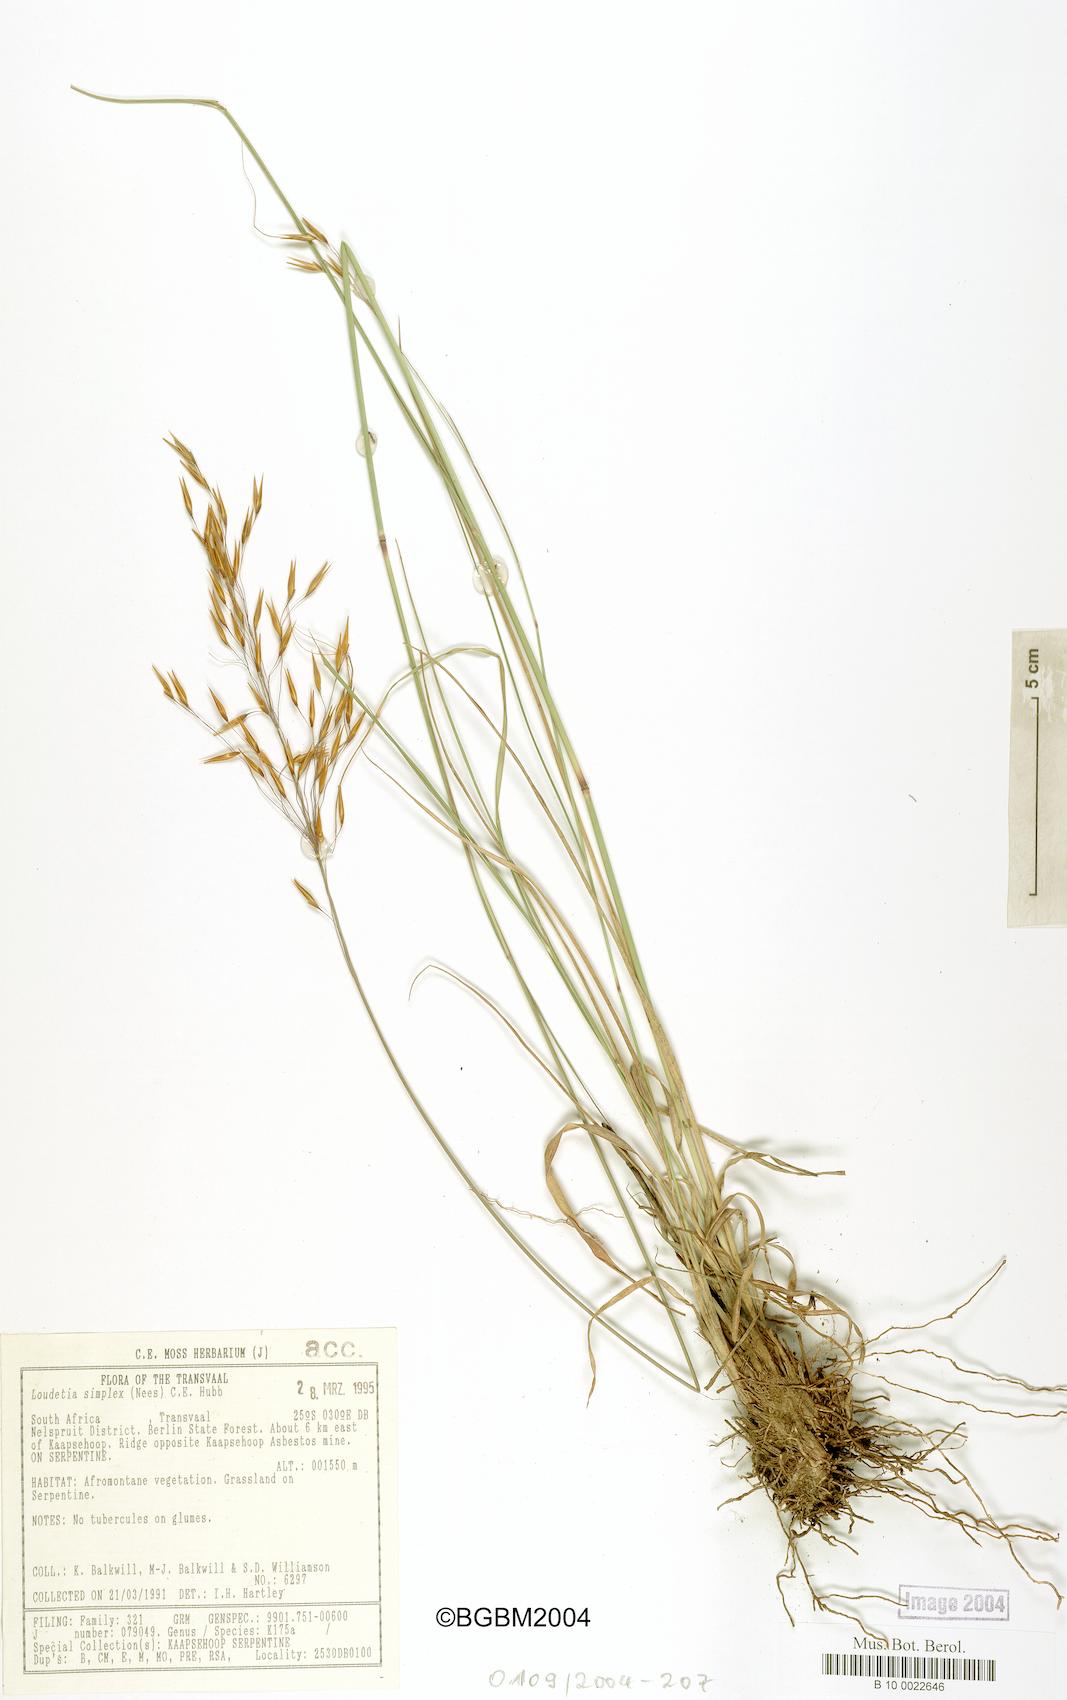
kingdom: Plantae
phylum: Tracheophyta
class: Liliopsida
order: Poales
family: Poaceae
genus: Loudetia
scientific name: Loudetia simplex
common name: Common russet grass
